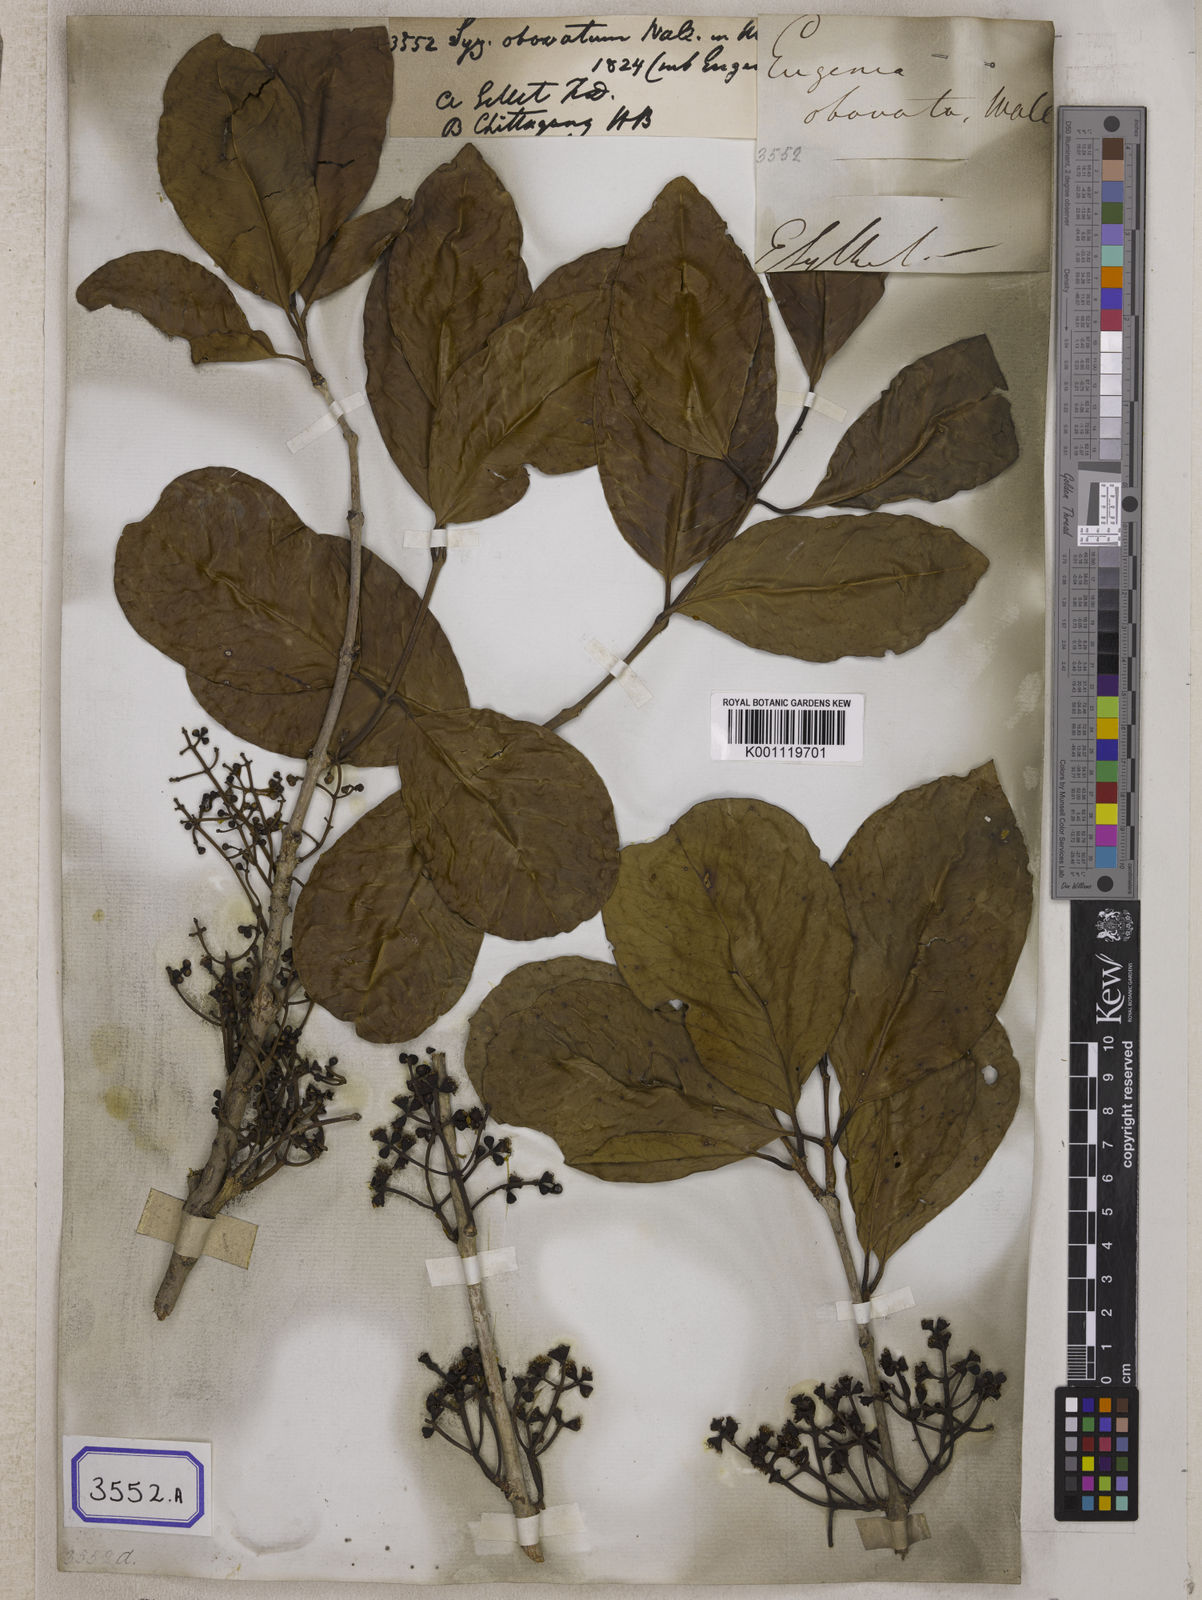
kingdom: Plantae
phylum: Tracheophyta
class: Magnoliopsida
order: Myrtales
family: Myrtaceae
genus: Syzygium
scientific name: Syzygium
